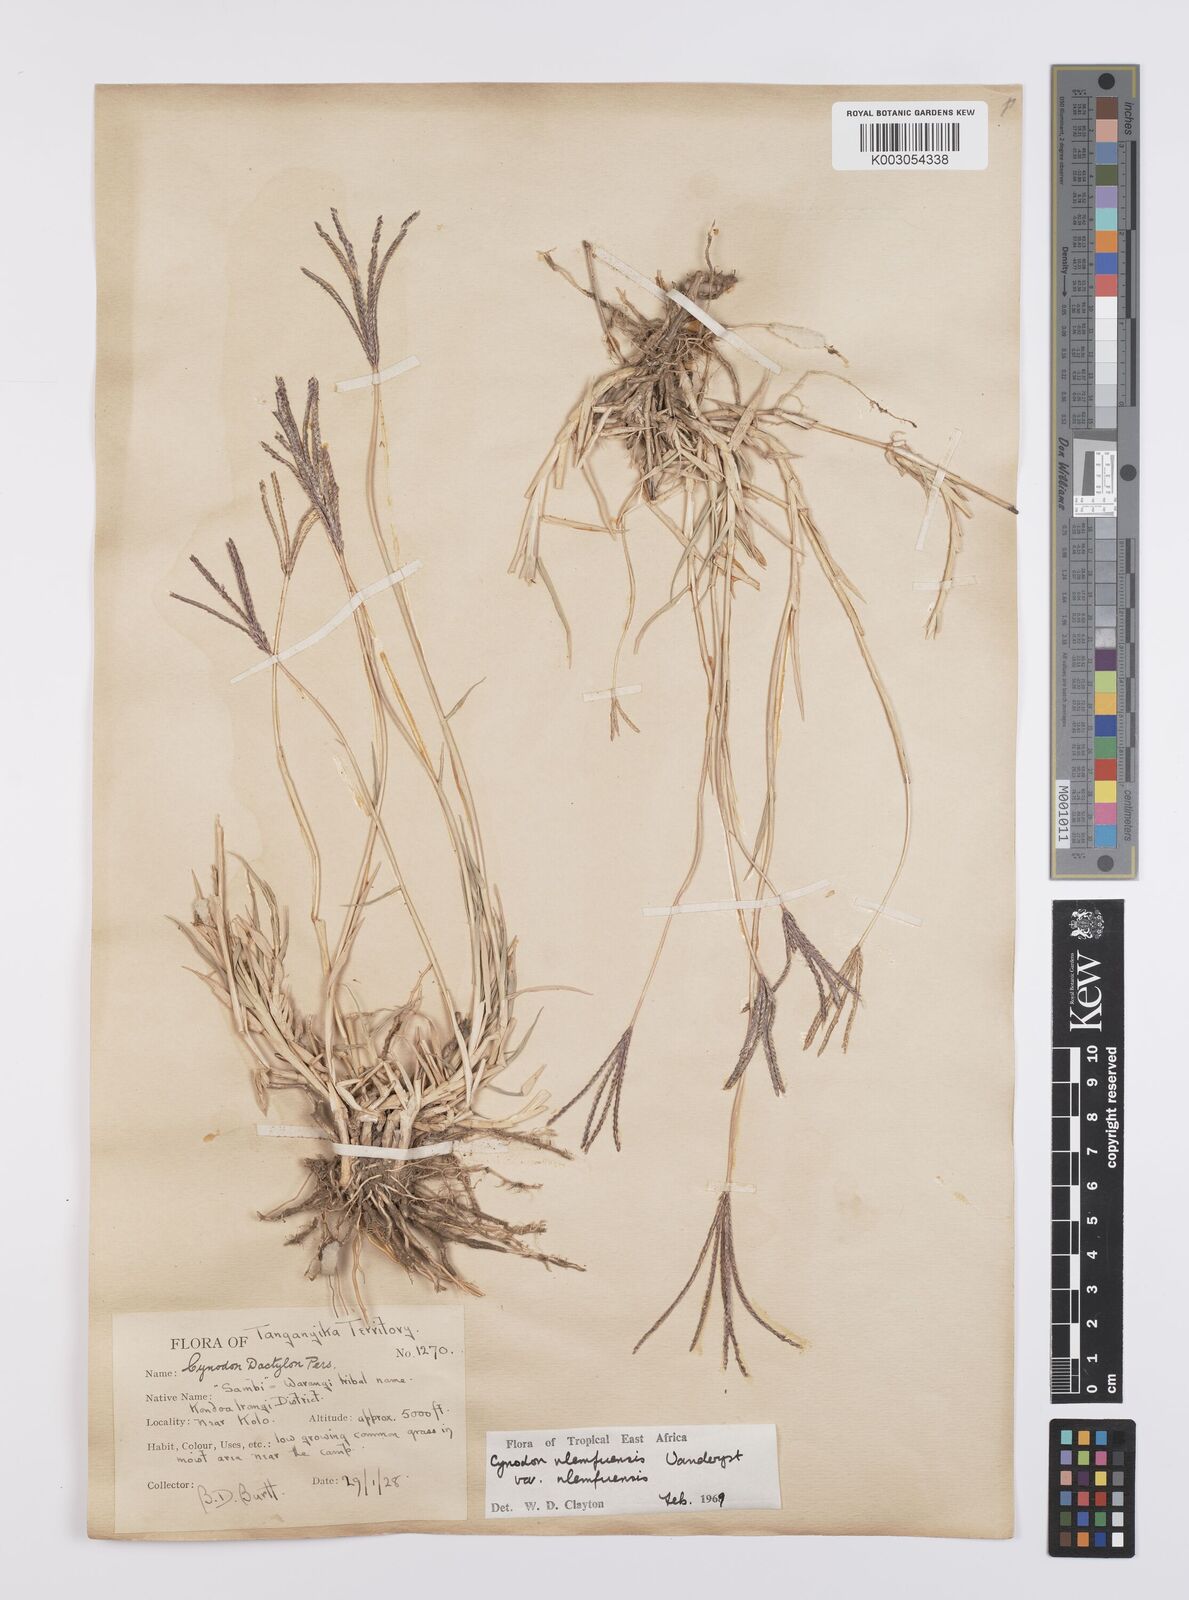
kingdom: Plantae
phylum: Tracheophyta
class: Liliopsida
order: Poales
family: Poaceae
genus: Cynodon
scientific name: Cynodon nlemfuensis
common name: African bermudagrass
